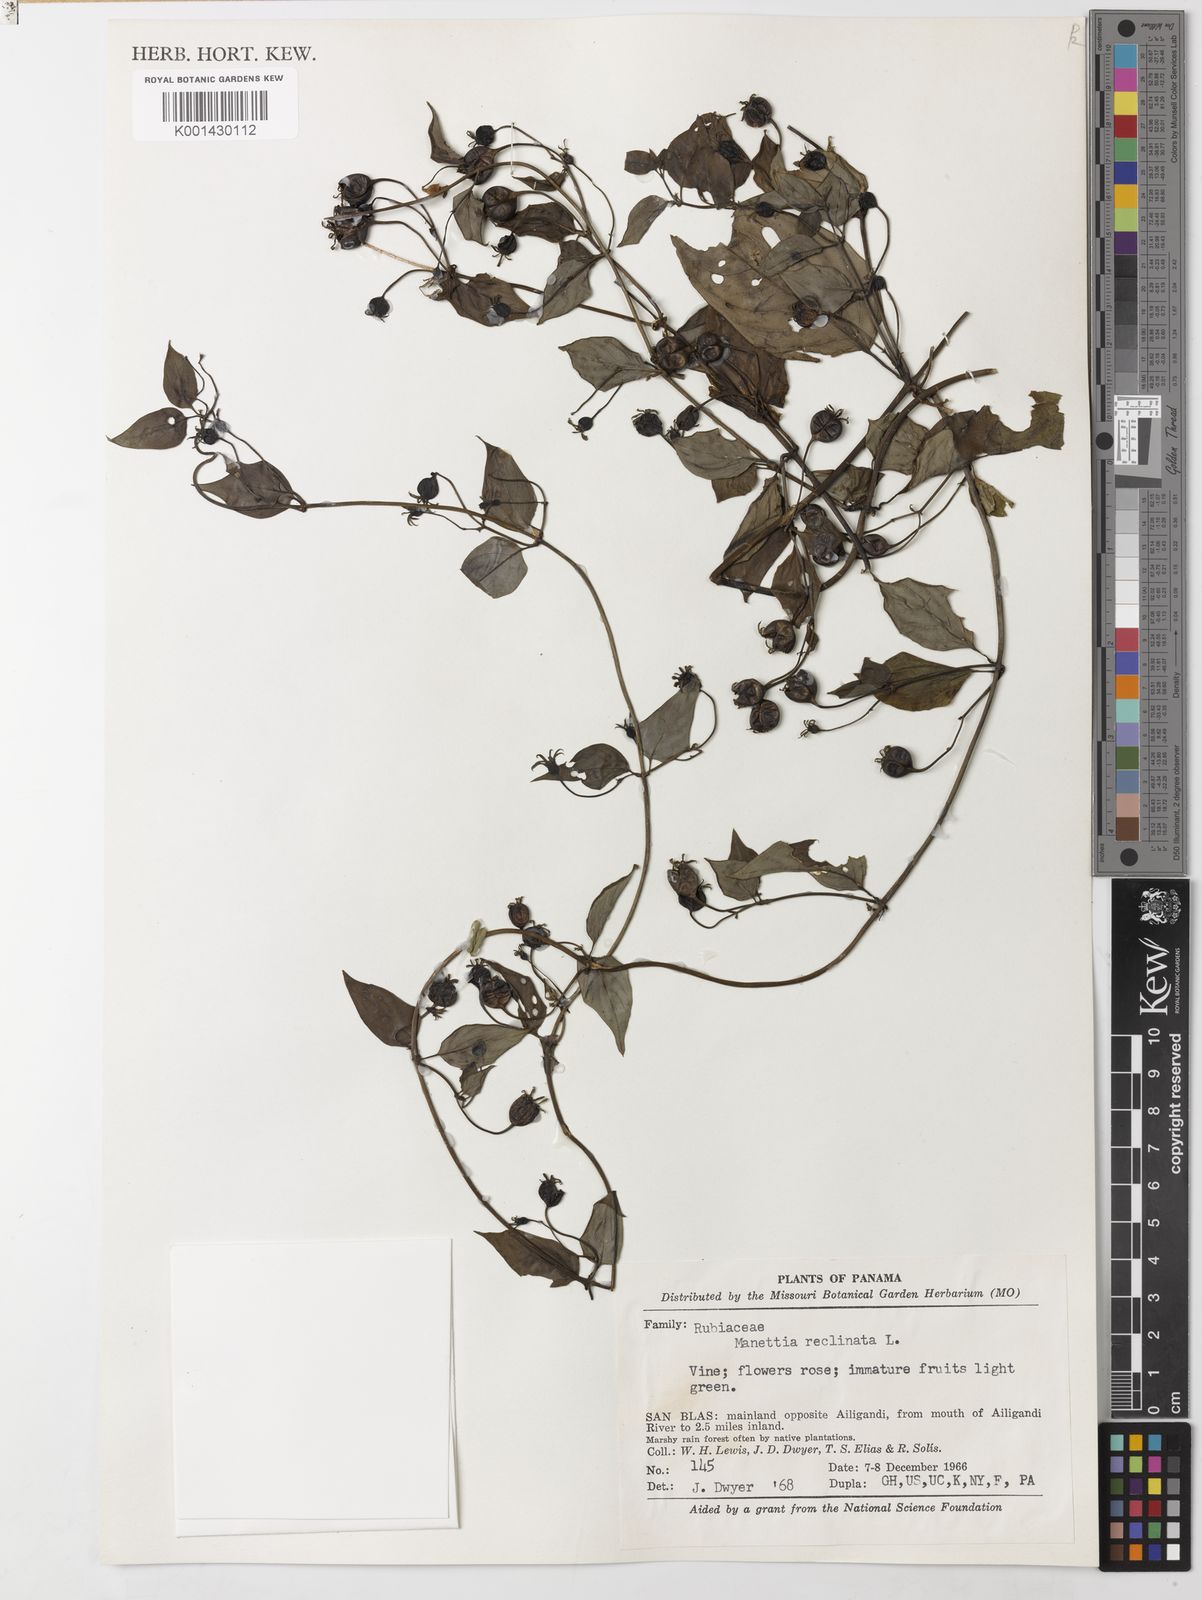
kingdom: Plantae
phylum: Tracheophyta
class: Magnoliopsida
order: Gentianales
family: Rubiaceae
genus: Manettia
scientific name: Manettia reclinata
